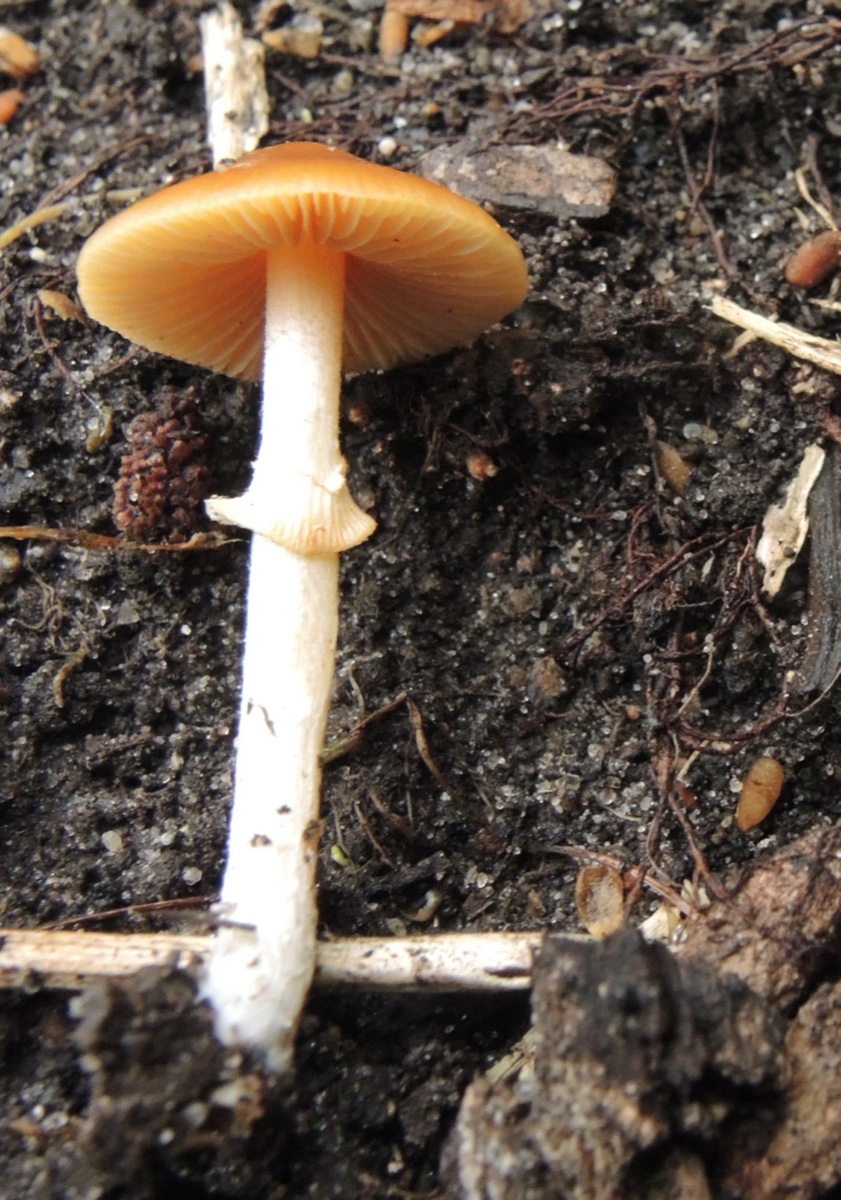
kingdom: Fungi
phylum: Basidiomycota
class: Agaricomycetes
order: Agaricales
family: Bolbitiaceae
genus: Conocybe
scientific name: Conocybe arrhenii
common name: ring-dansehat
